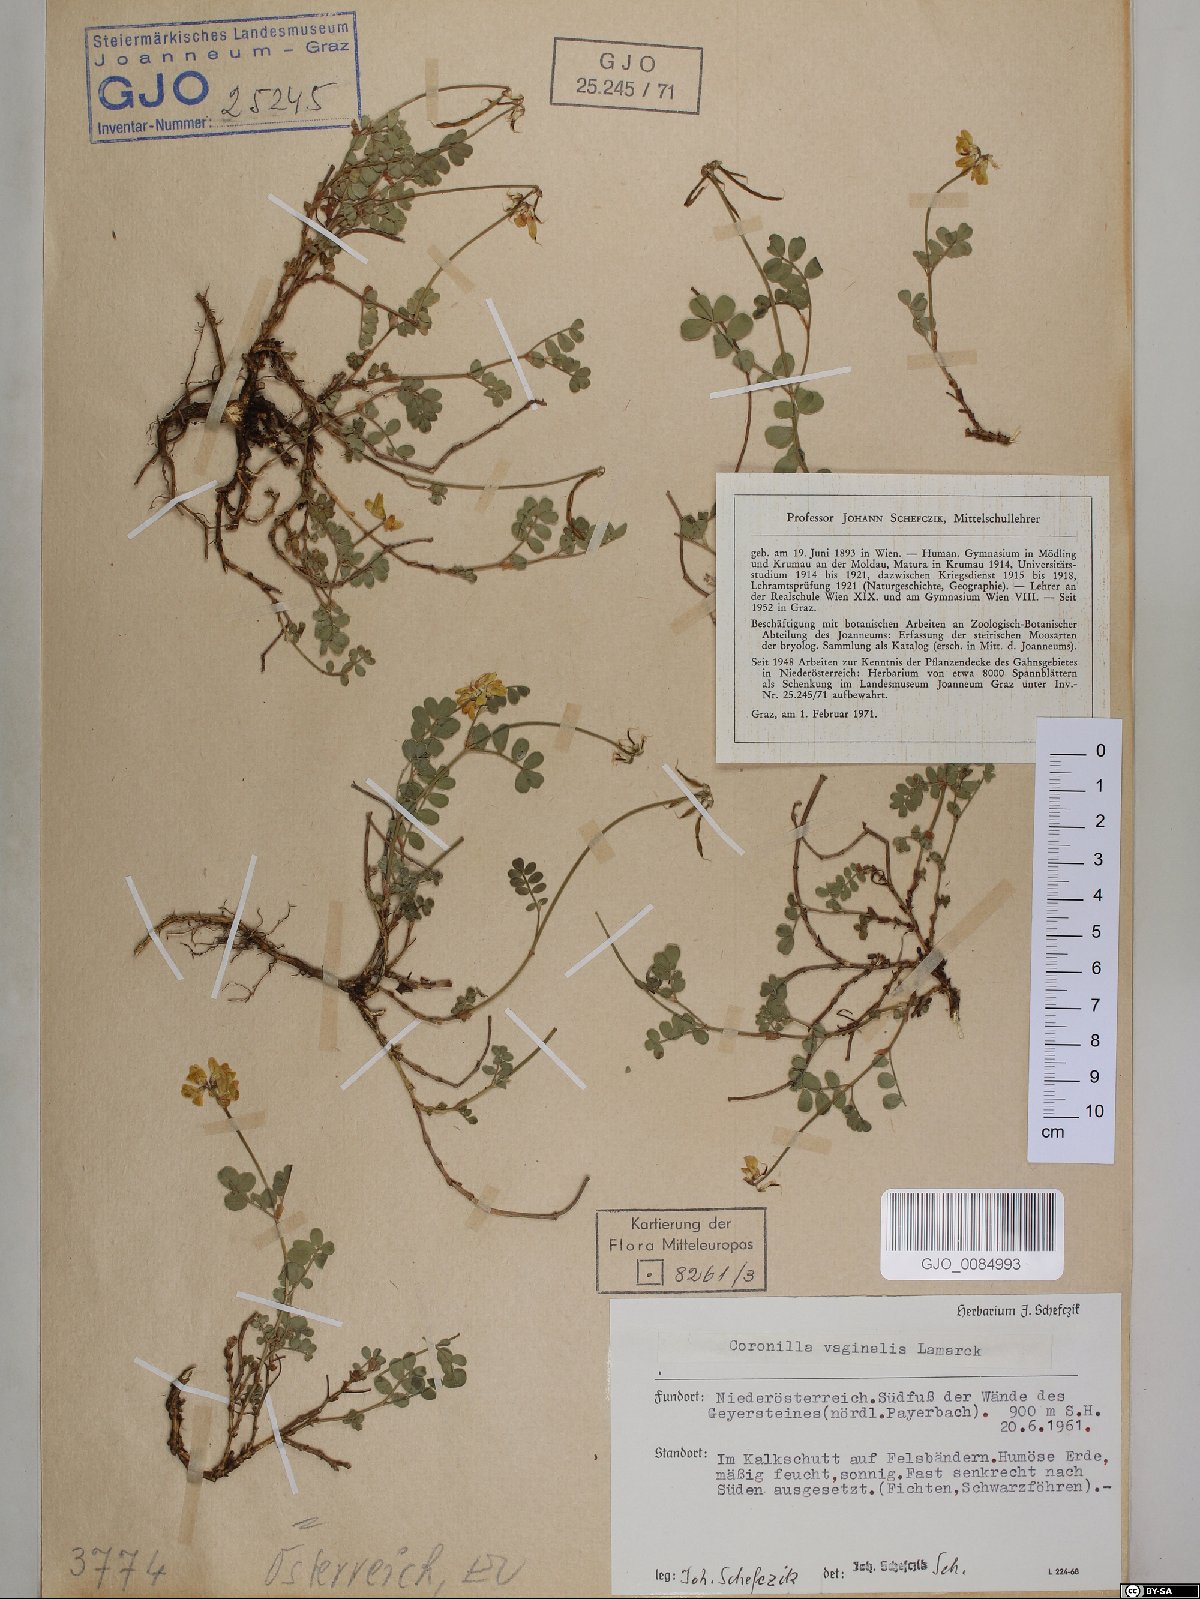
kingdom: Plantae
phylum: Tracheophyta
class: Magnoliopsida
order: Fabales
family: Fabaceae
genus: Coronilla
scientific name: Coronilla vaginalis
